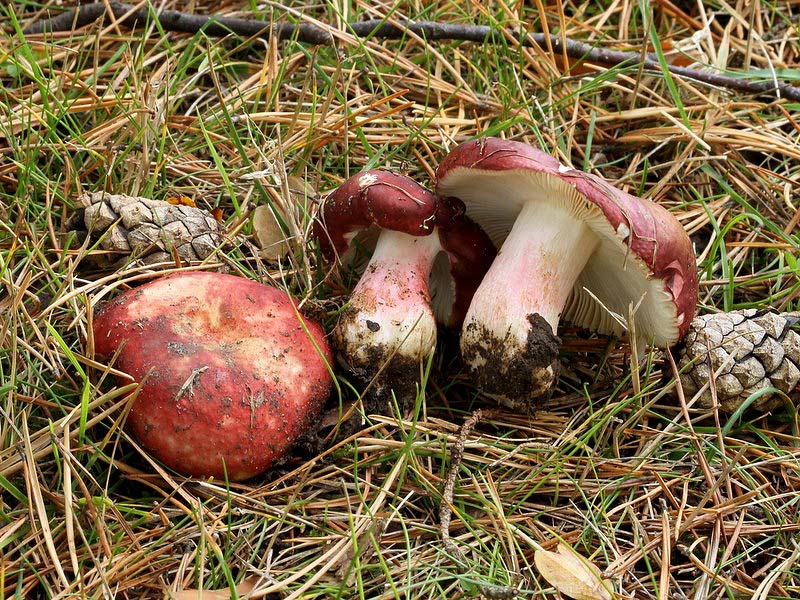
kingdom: Fungi
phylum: Basidiomycota
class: Agaricomycetes
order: Russulales
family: Russulaceae
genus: Russula
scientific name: Russula xerampelina
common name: hummer-skørhat
